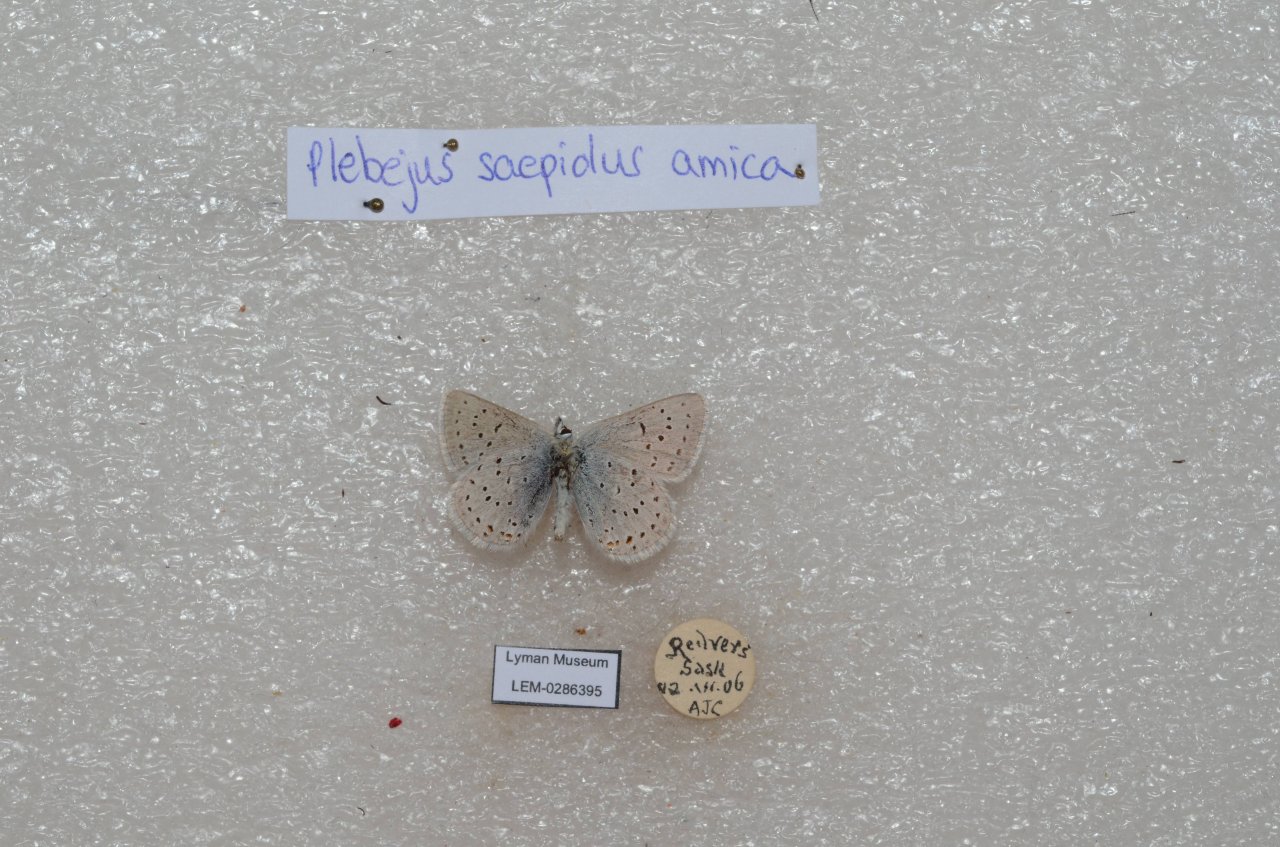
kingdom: Animalia
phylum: Arthropoda
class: Insecta
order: Lepidoptera
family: Lycaenidae
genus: Plebejus
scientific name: Plebejus saepiolus
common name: Greenish Blue
